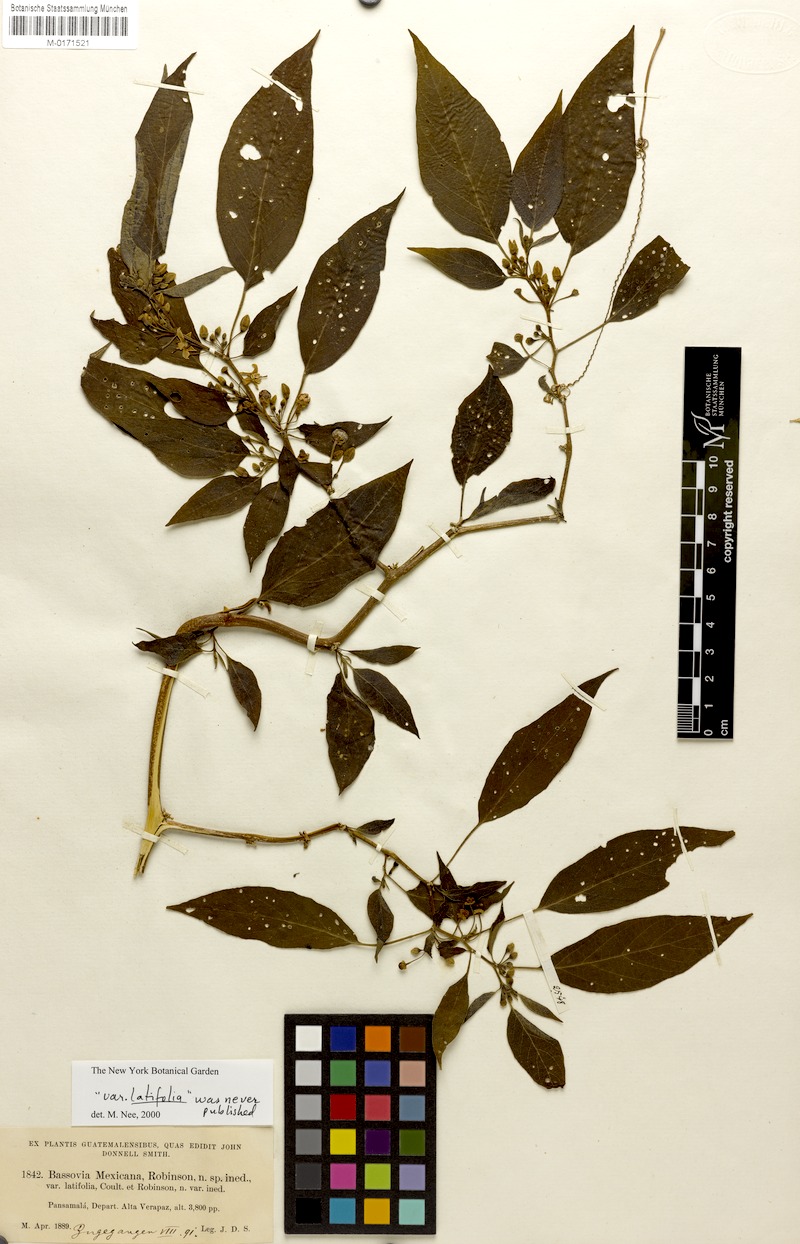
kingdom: Plantae
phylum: Tracheophyta
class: Magnoliopsida
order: Solanales
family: Solanaceae
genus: Witheringia
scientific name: Witheringia mexicana
